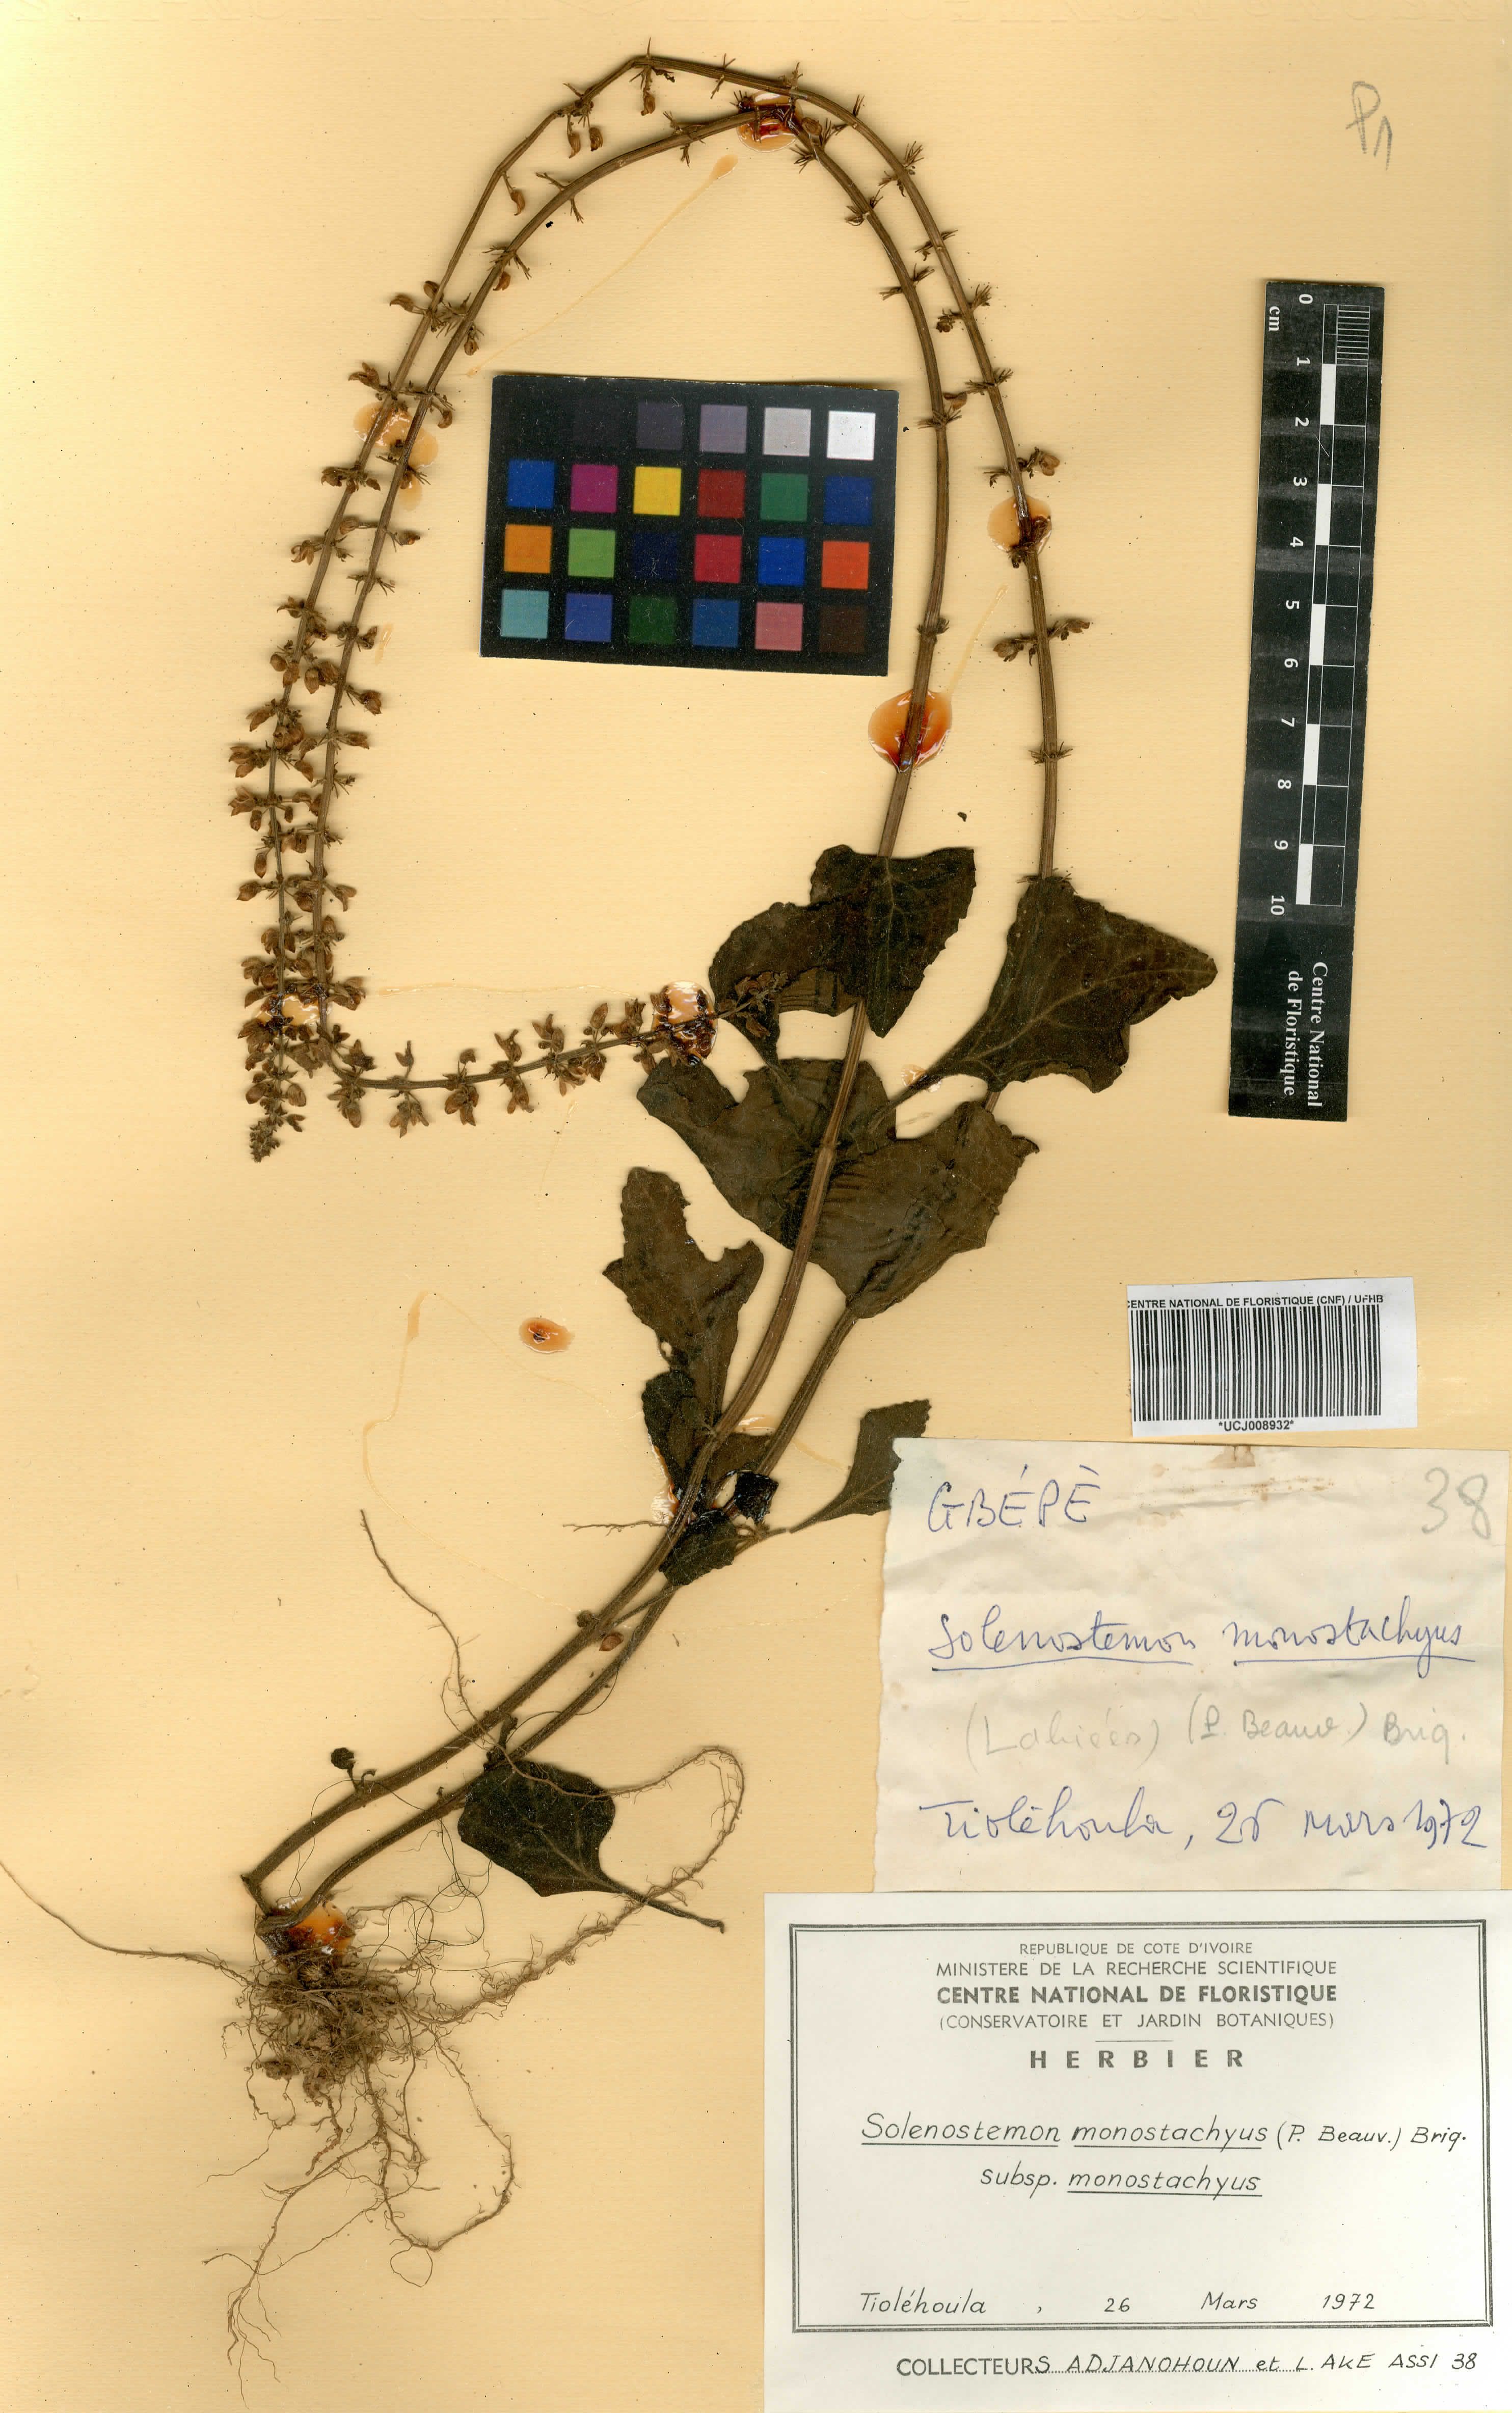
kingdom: Plantae
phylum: Tracheophyta
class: Magnoliopsida
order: Lamiales
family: Lamiaceae
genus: Coleus
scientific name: Coleus monostachyus
